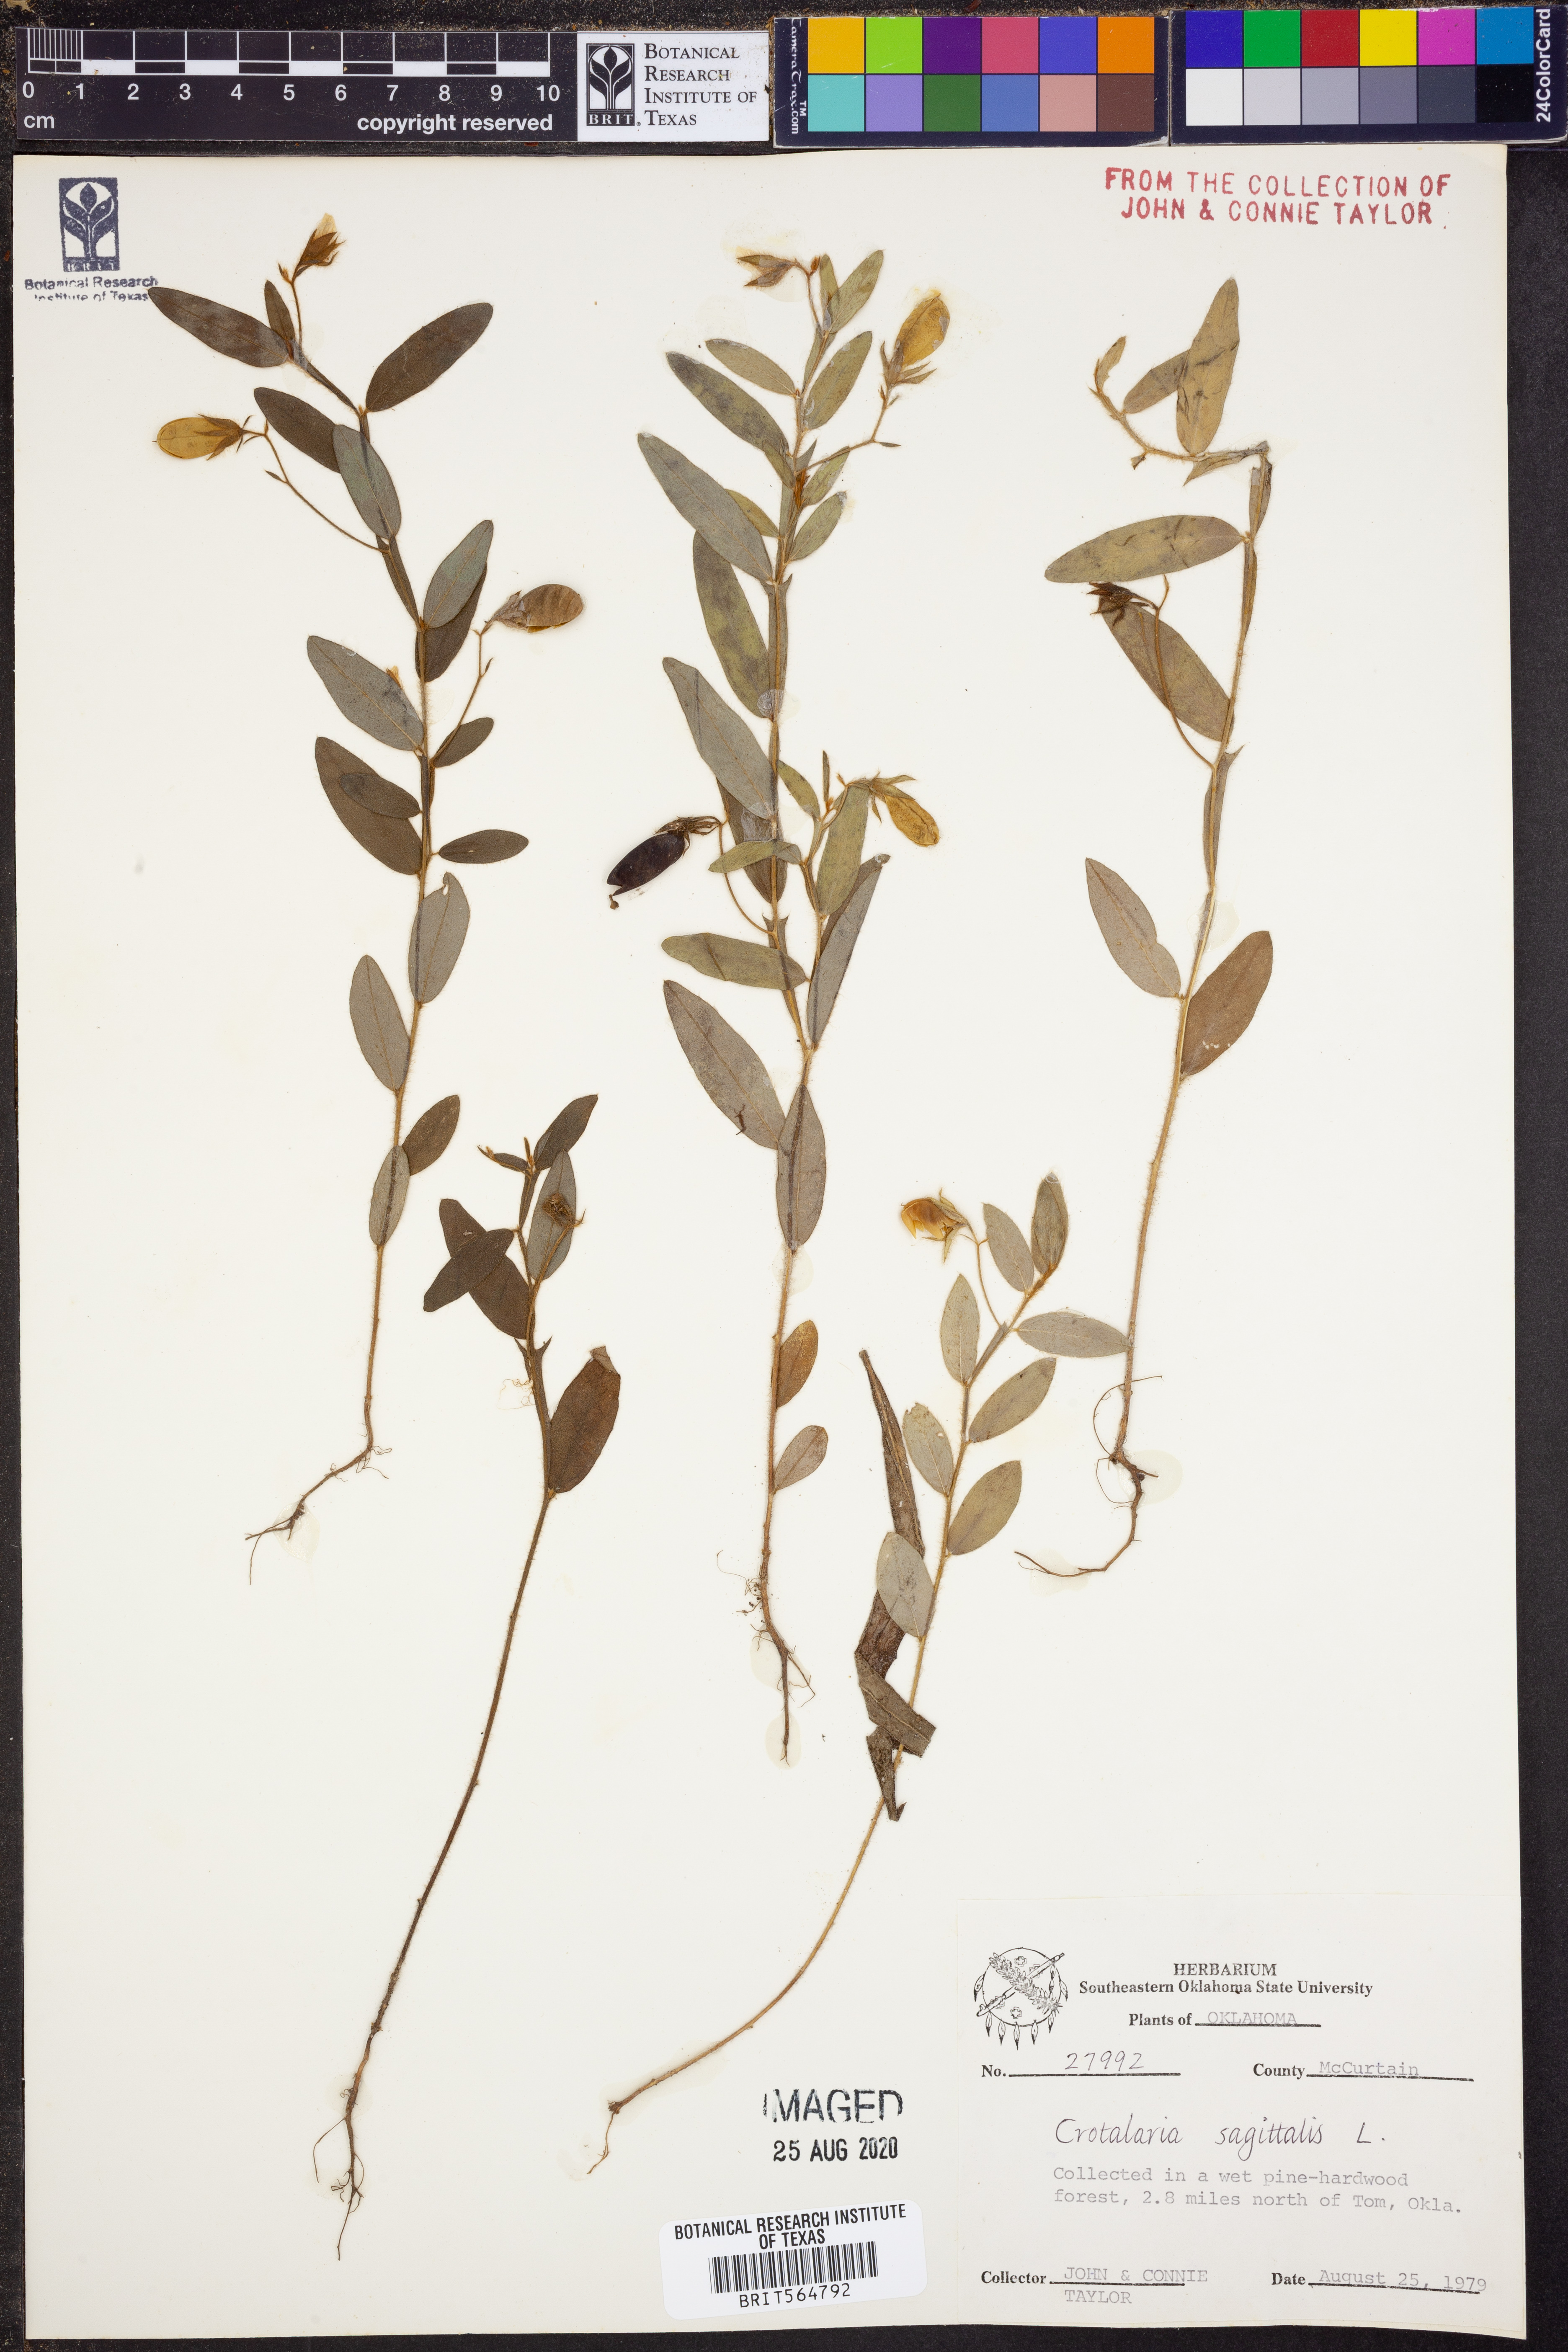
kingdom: Plantae
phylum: Tracheophyta
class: Magnoliopsida
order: Fabales
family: Fabaceae
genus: Crotalaria
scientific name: Crotalaria sagittalis
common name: Arrowhead rattlebox
